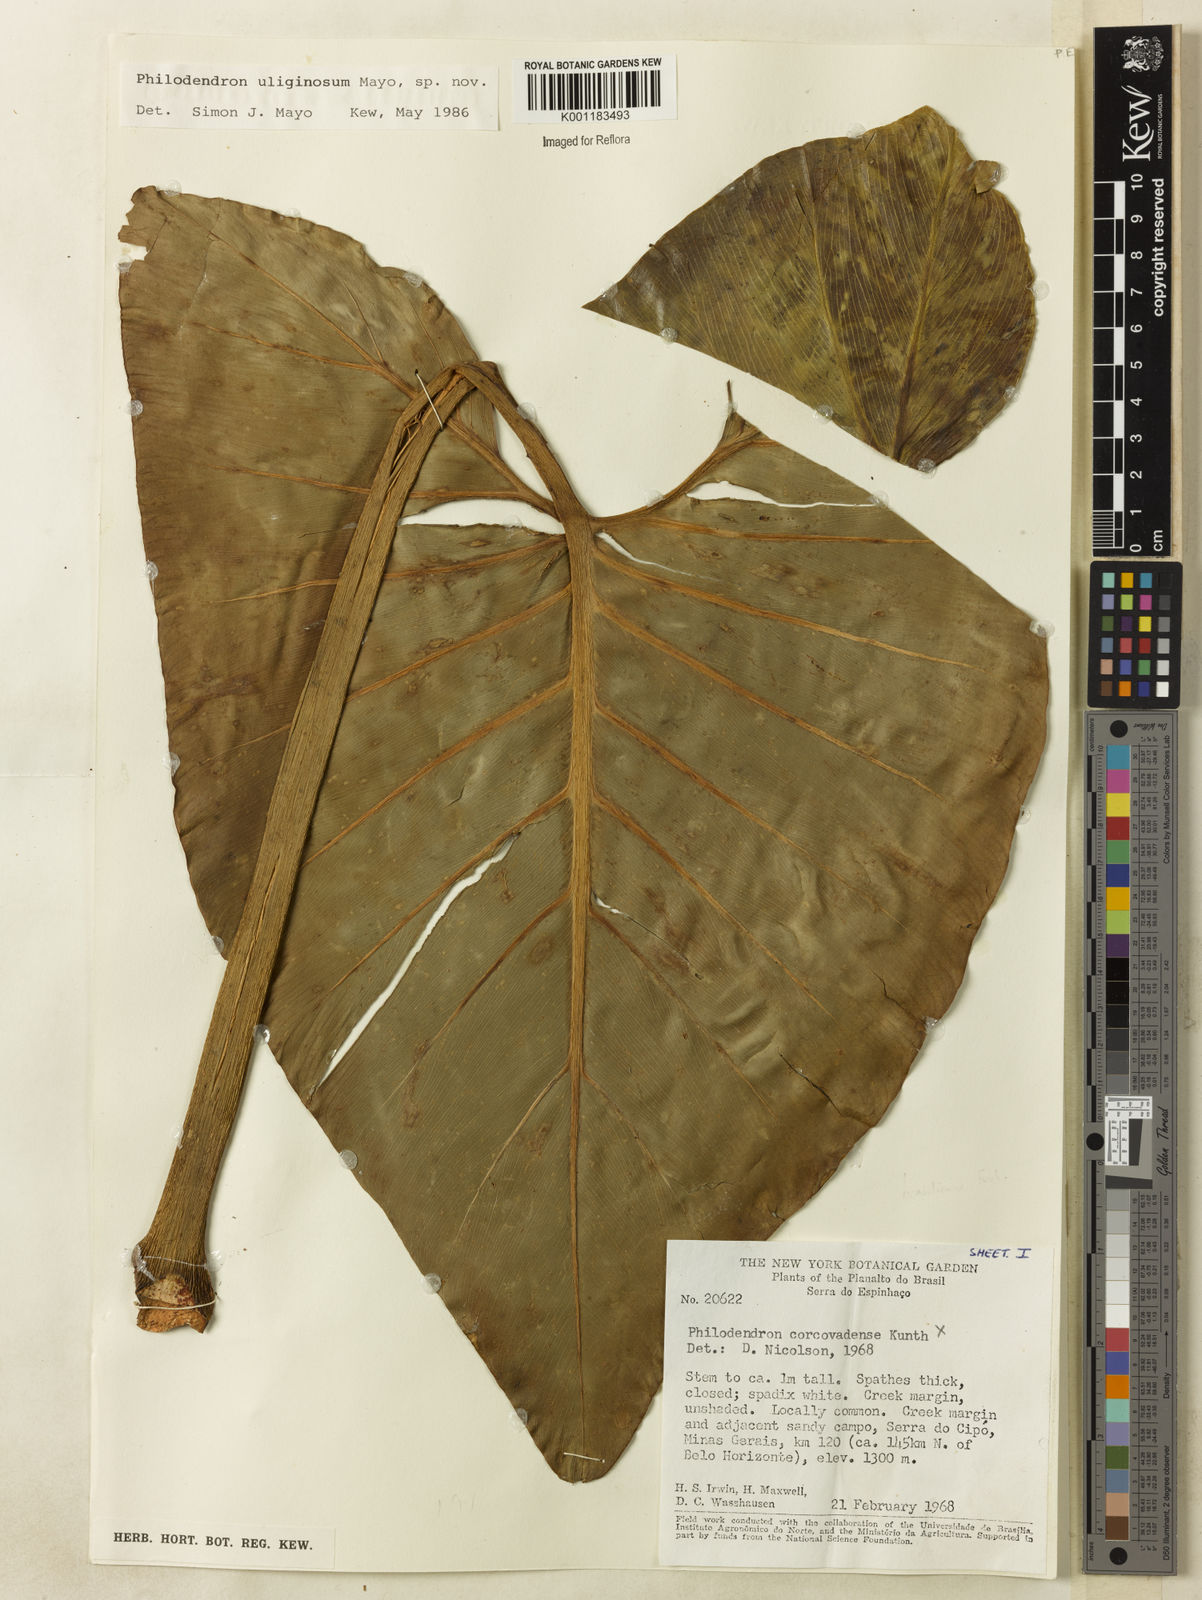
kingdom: Plantae
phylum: Tracheophyta
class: Liliopsida
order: Alismatales
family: Araceae
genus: Thaumatophyllum
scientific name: Thaumatophyllum uliginosum
